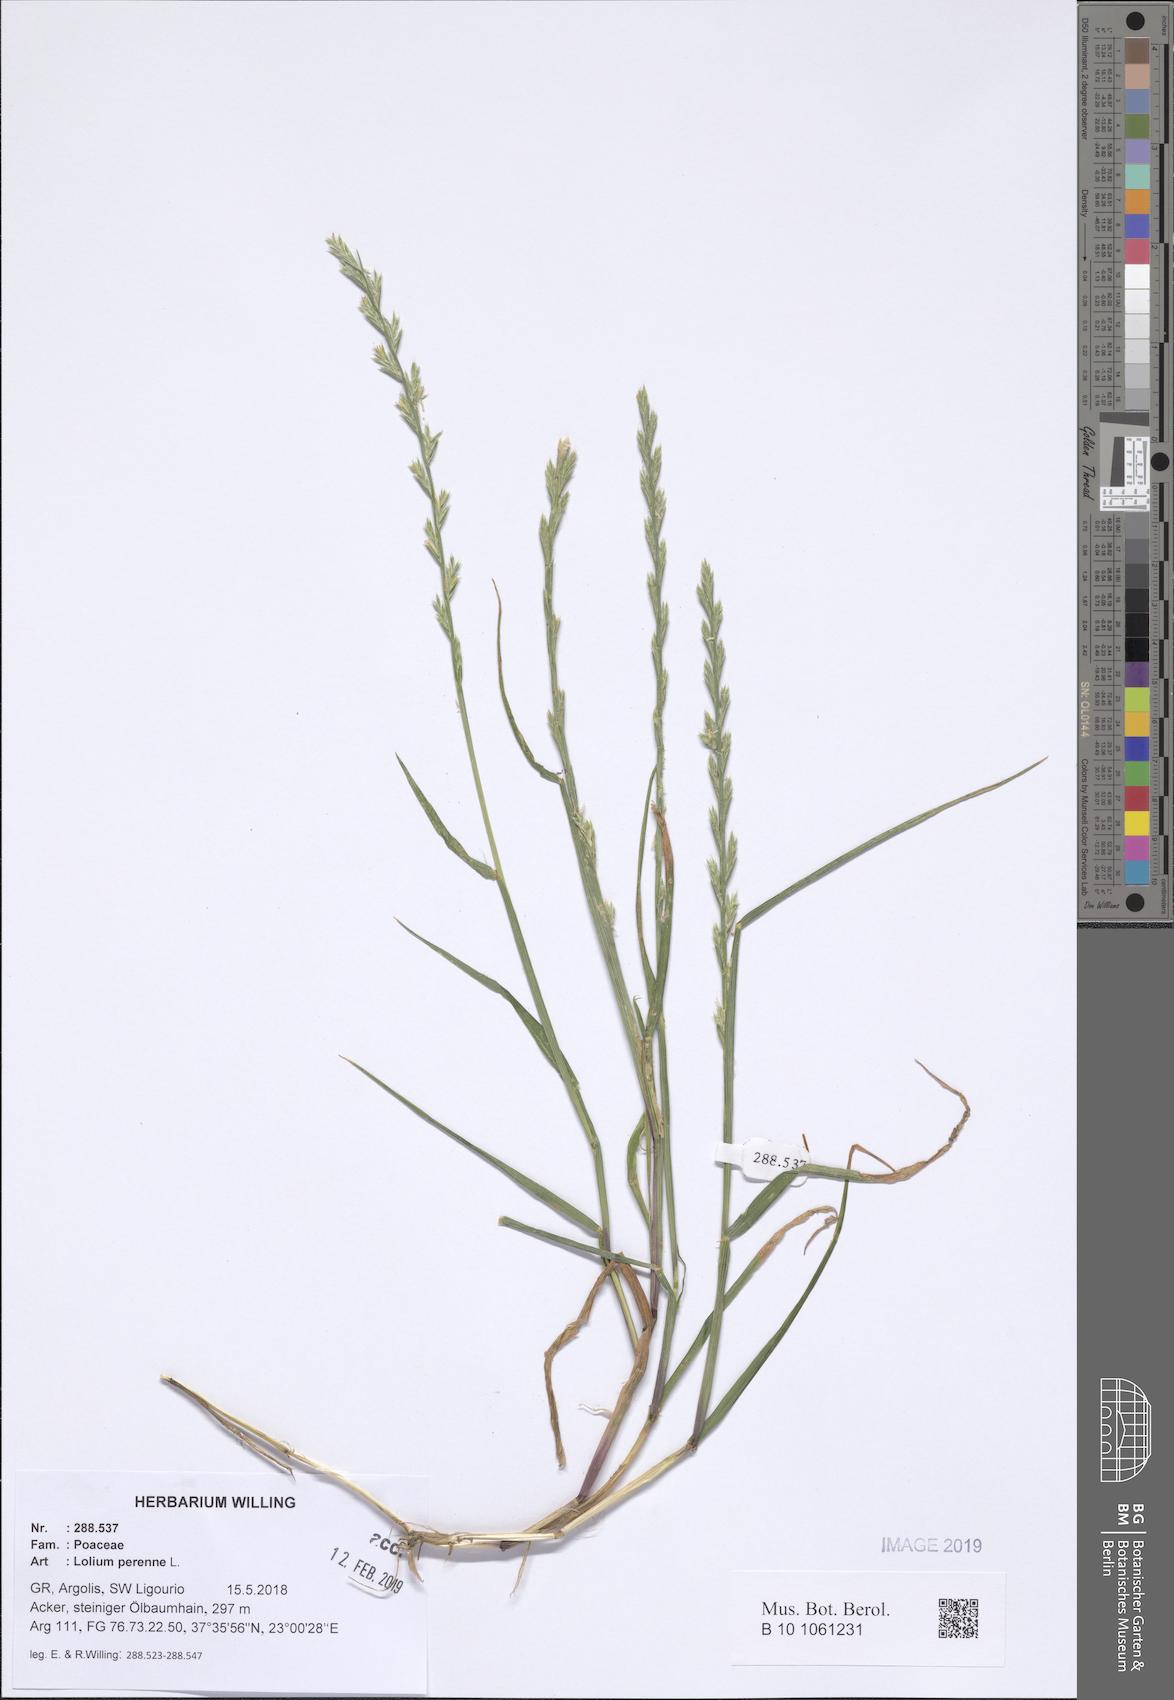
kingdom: Plantae
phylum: Tracheophyta
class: Liliopsida
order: Poales
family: Poaceae
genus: Lolium
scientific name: Lolium perenne
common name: Perennial ryegrass
